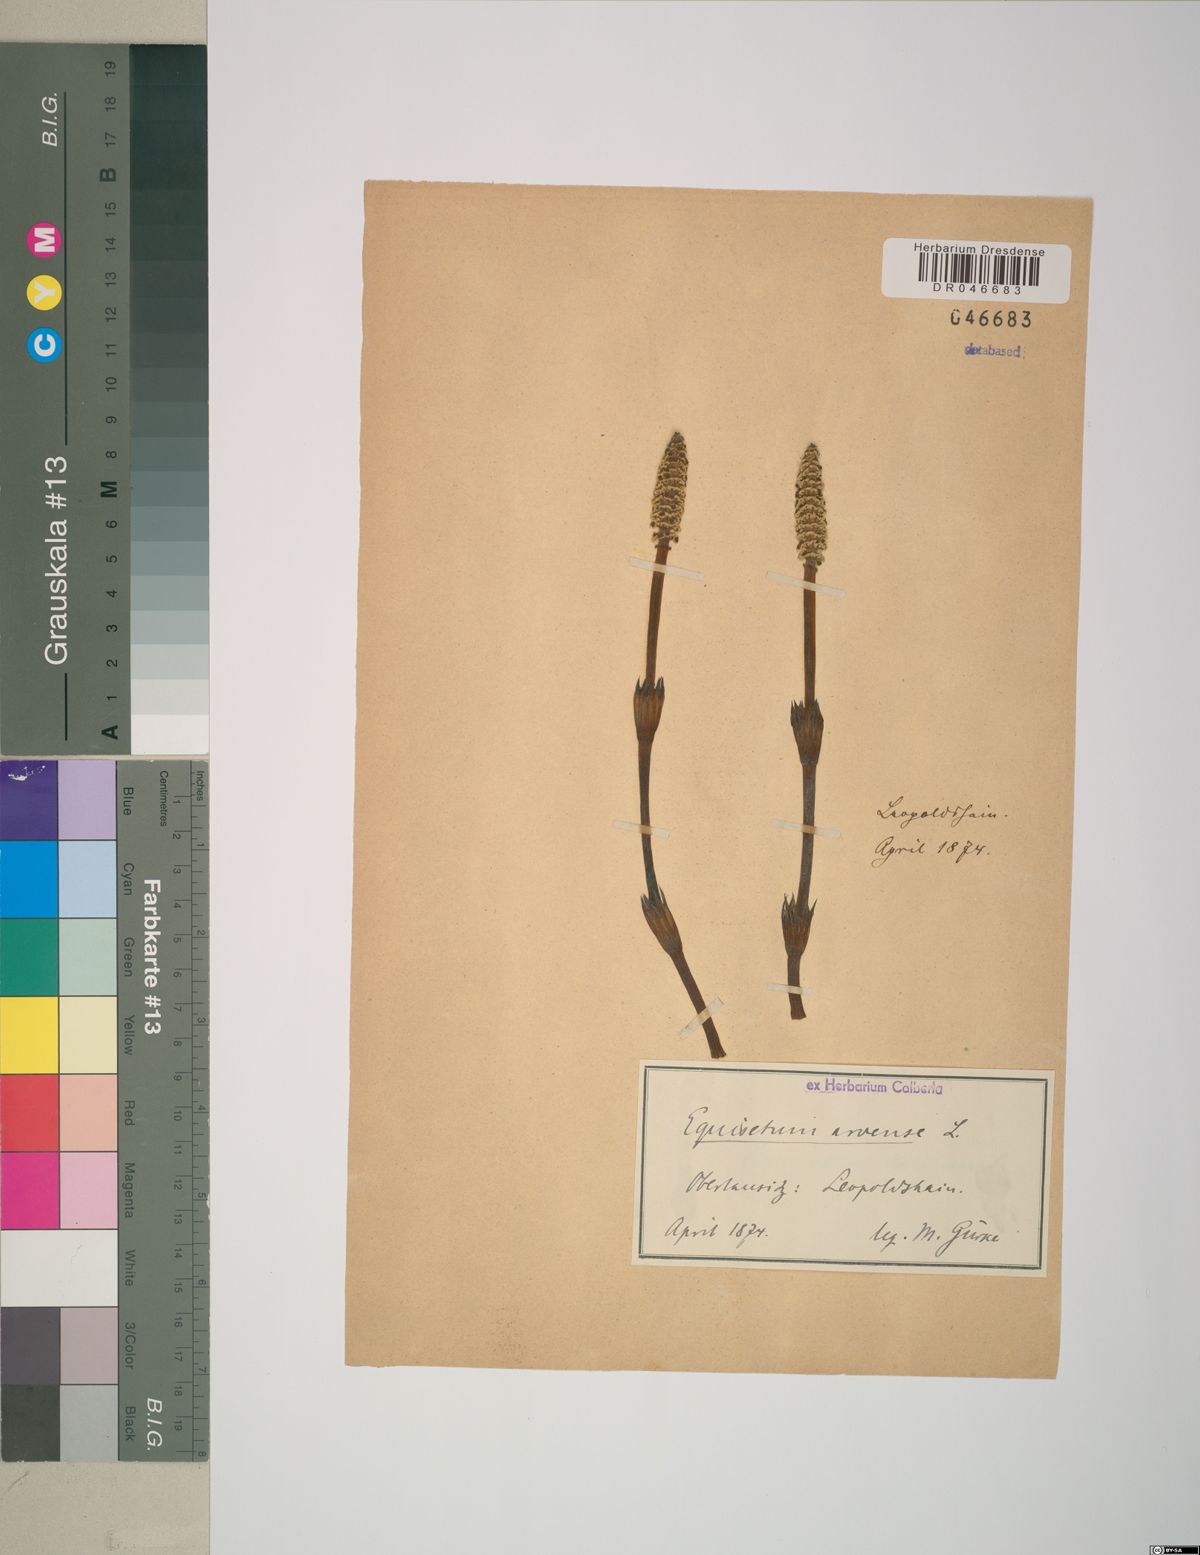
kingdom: Plantae
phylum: Tracheophyta
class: Polypodiopsida
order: Equisetales
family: Equisetaceae
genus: Equisetum
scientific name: Equisetum arvense
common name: Field horsetail
